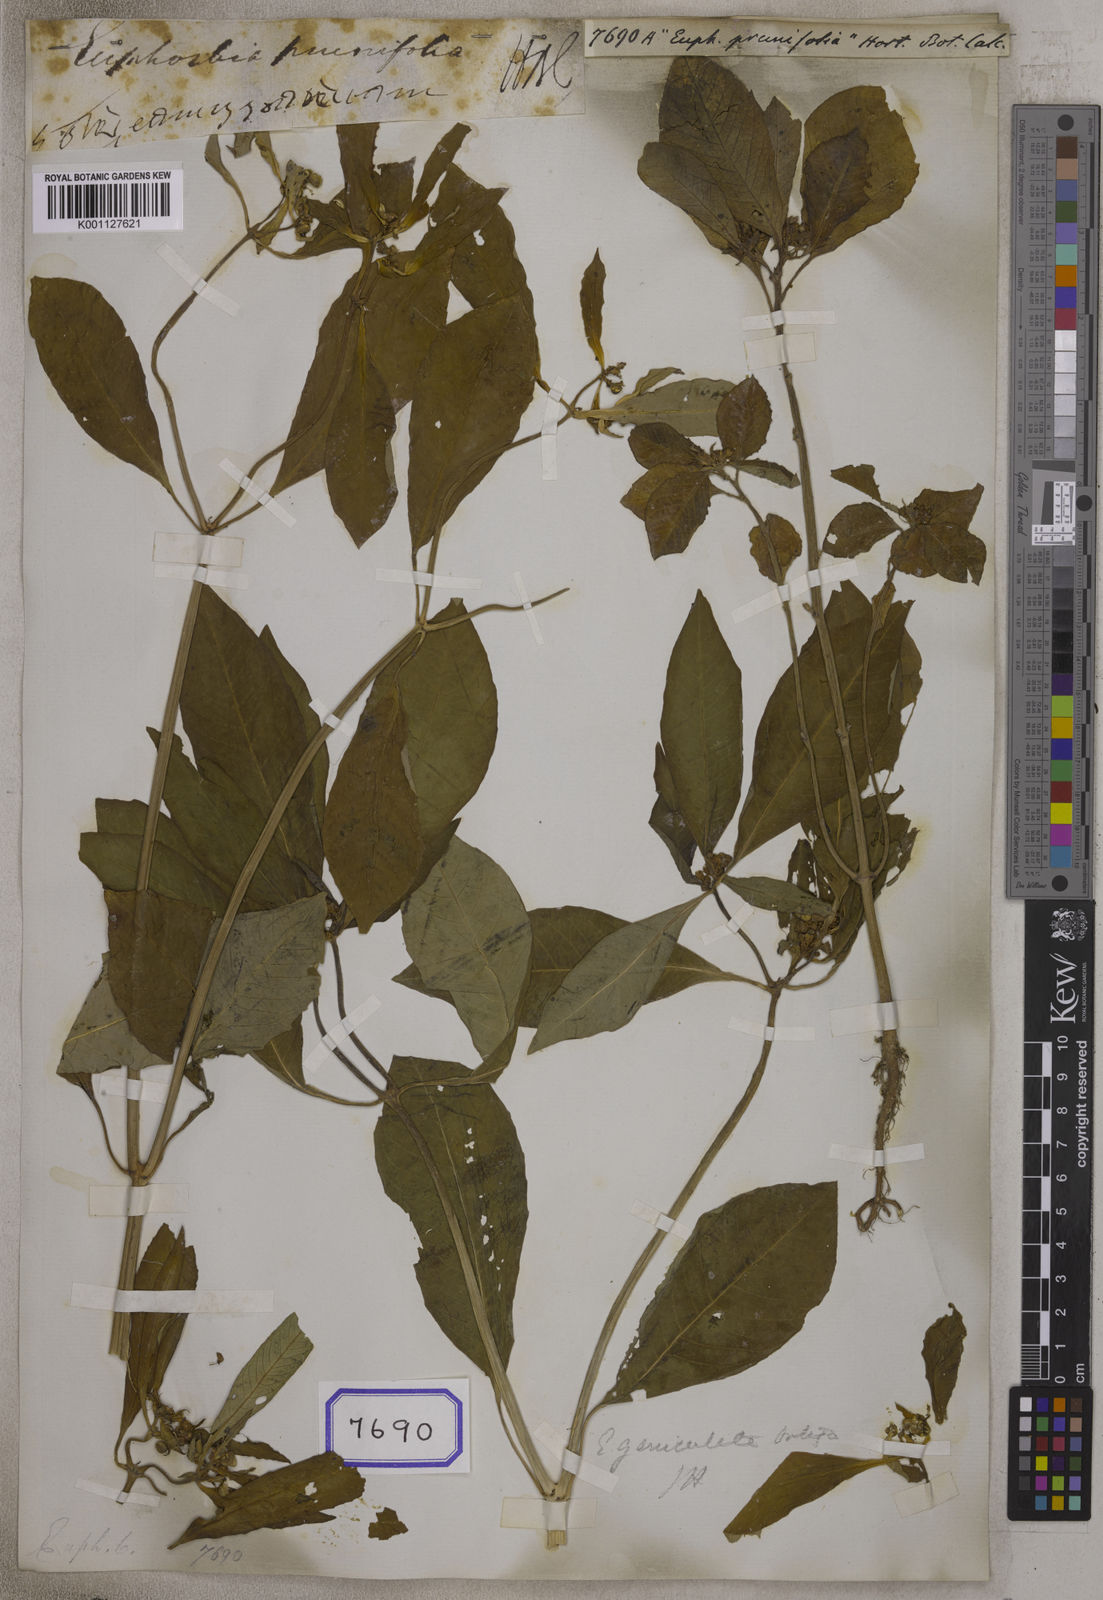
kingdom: Plantae
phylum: Tracheophyta
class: Magnoliopsida
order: Malpighiales
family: Euphorbiaceae
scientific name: Euphorbiaceae
